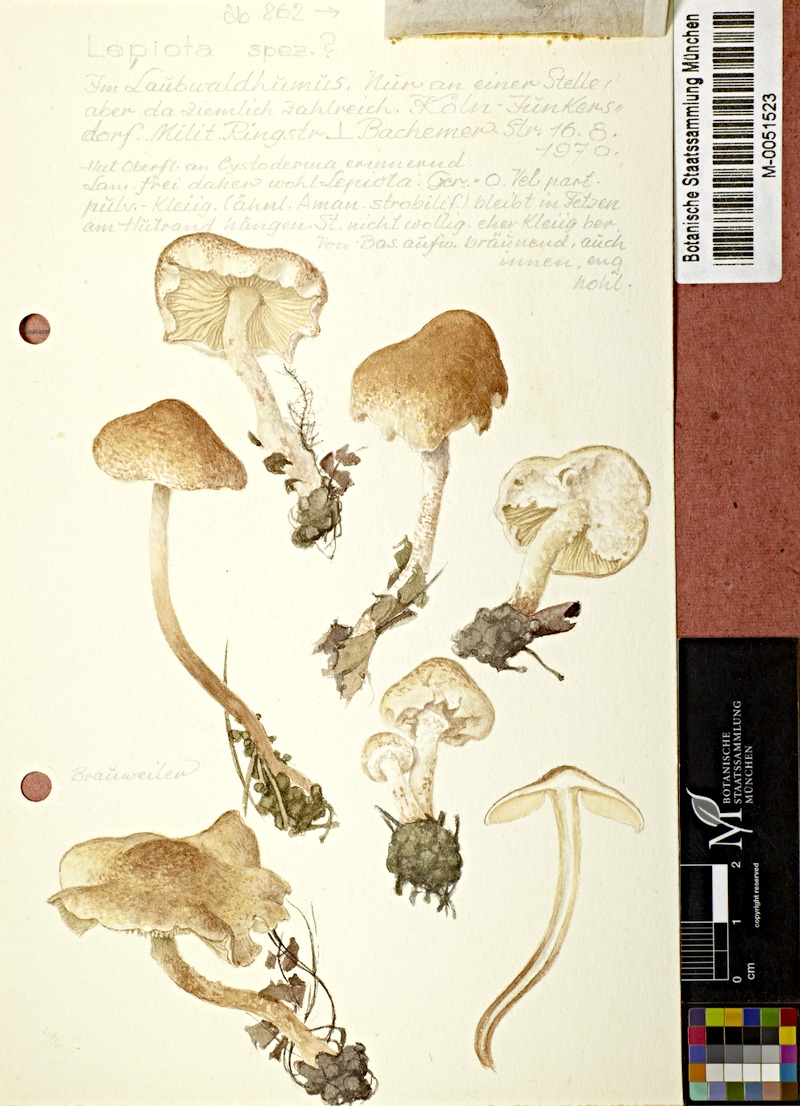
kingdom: Fungi
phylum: Basidiomycota
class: Agaricomycetes
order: Agaricales
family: Agaricaceae
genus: Lepiota
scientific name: Lepiota
